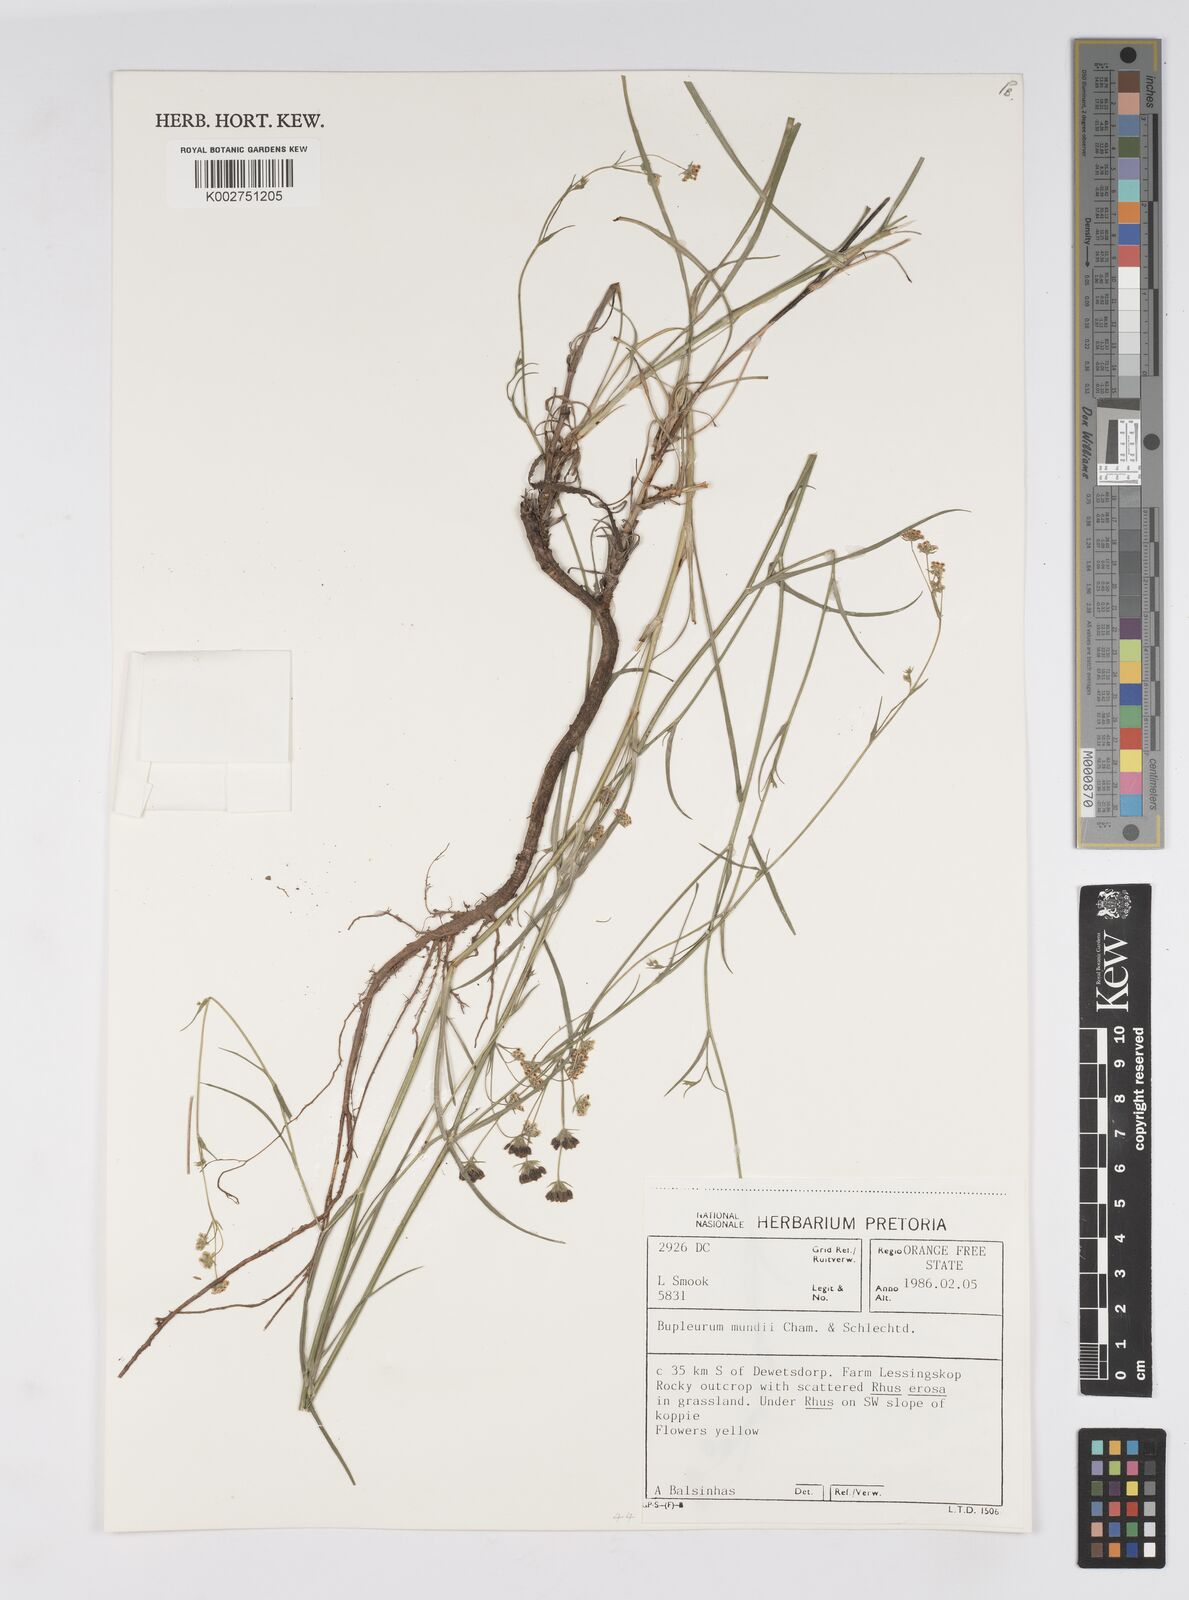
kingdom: Plantae
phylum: Tracheophyta
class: Magnoliopsida
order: Apiales
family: Apiaceae
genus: Bupleurum
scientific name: Bupleurum mundii
